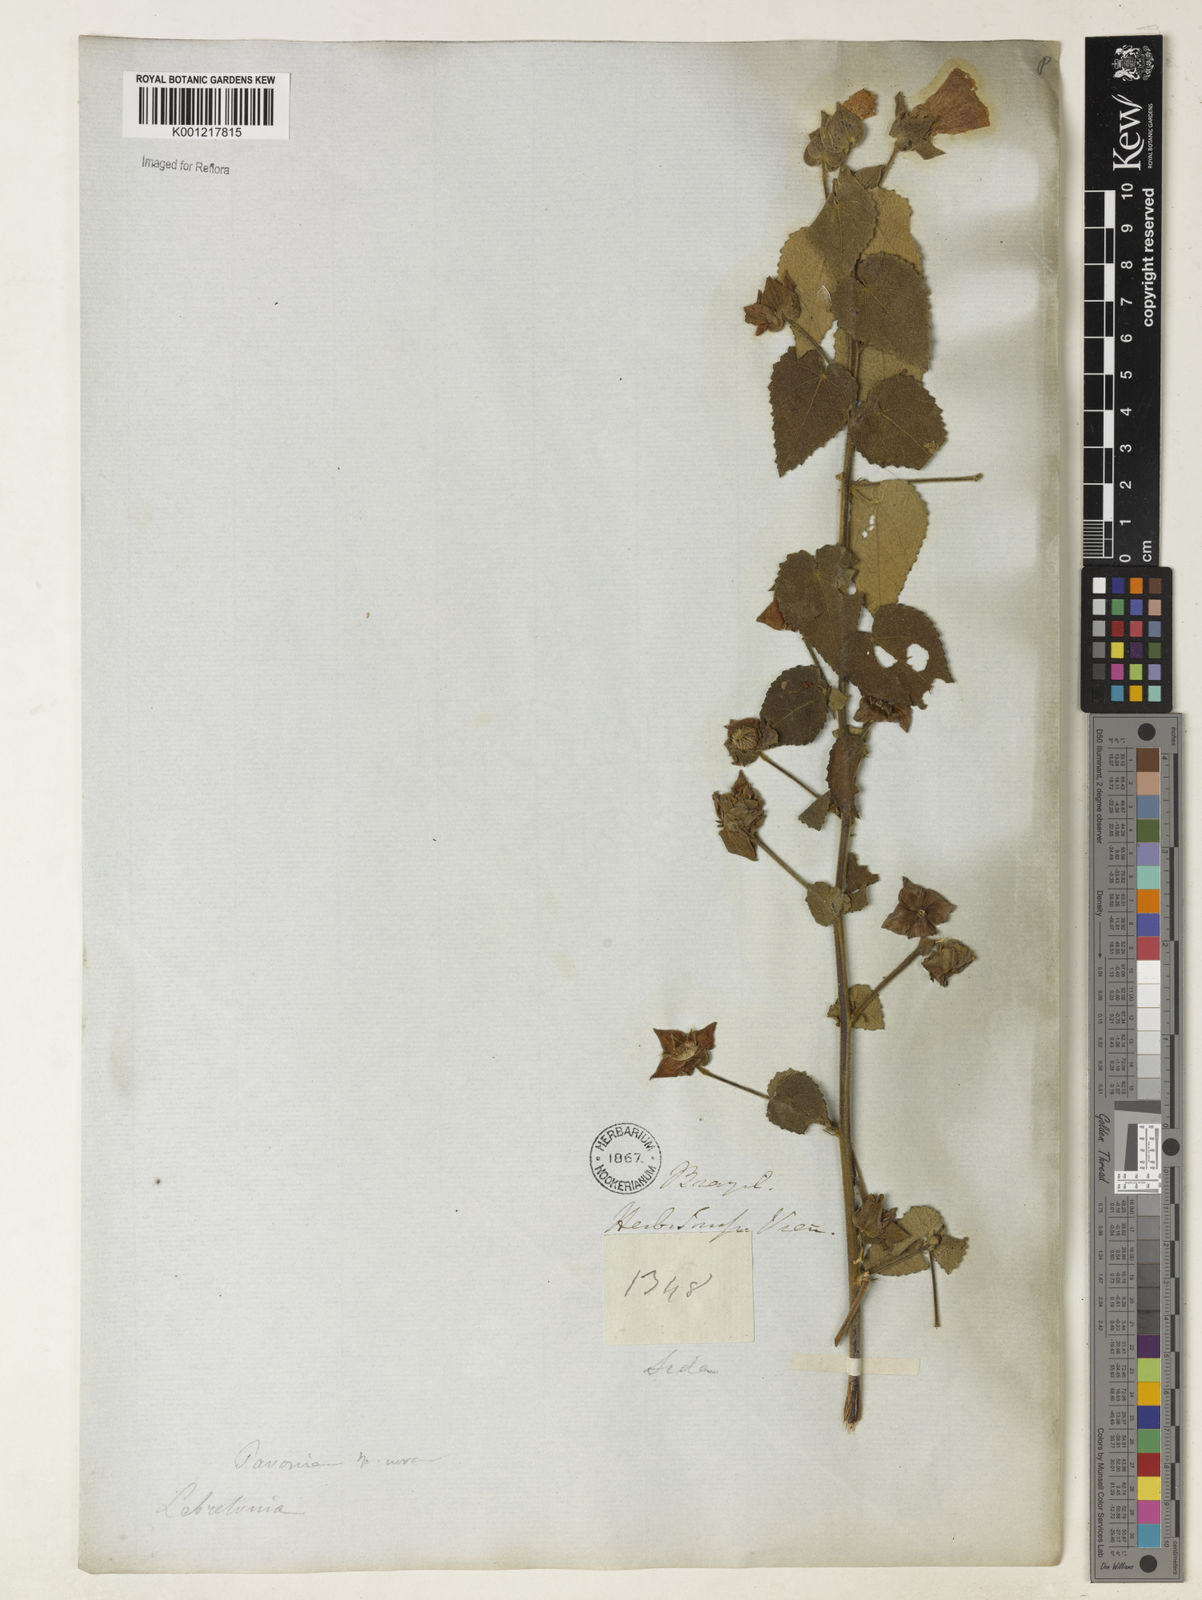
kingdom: Plantae
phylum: Tracheophyta
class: Magnoliopsida
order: Malvales
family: Malvaceae
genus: Pavonia
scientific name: Pavonia
